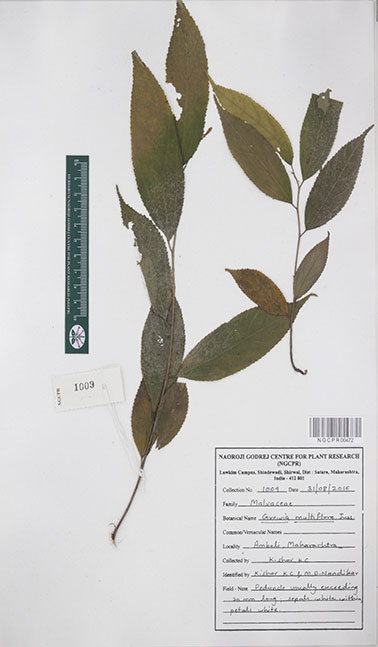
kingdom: Plantae
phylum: Tracheophyta
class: Magnoliopsida
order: Malvales
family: Malvaceae
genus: Grewia
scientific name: Grewia multiflora
